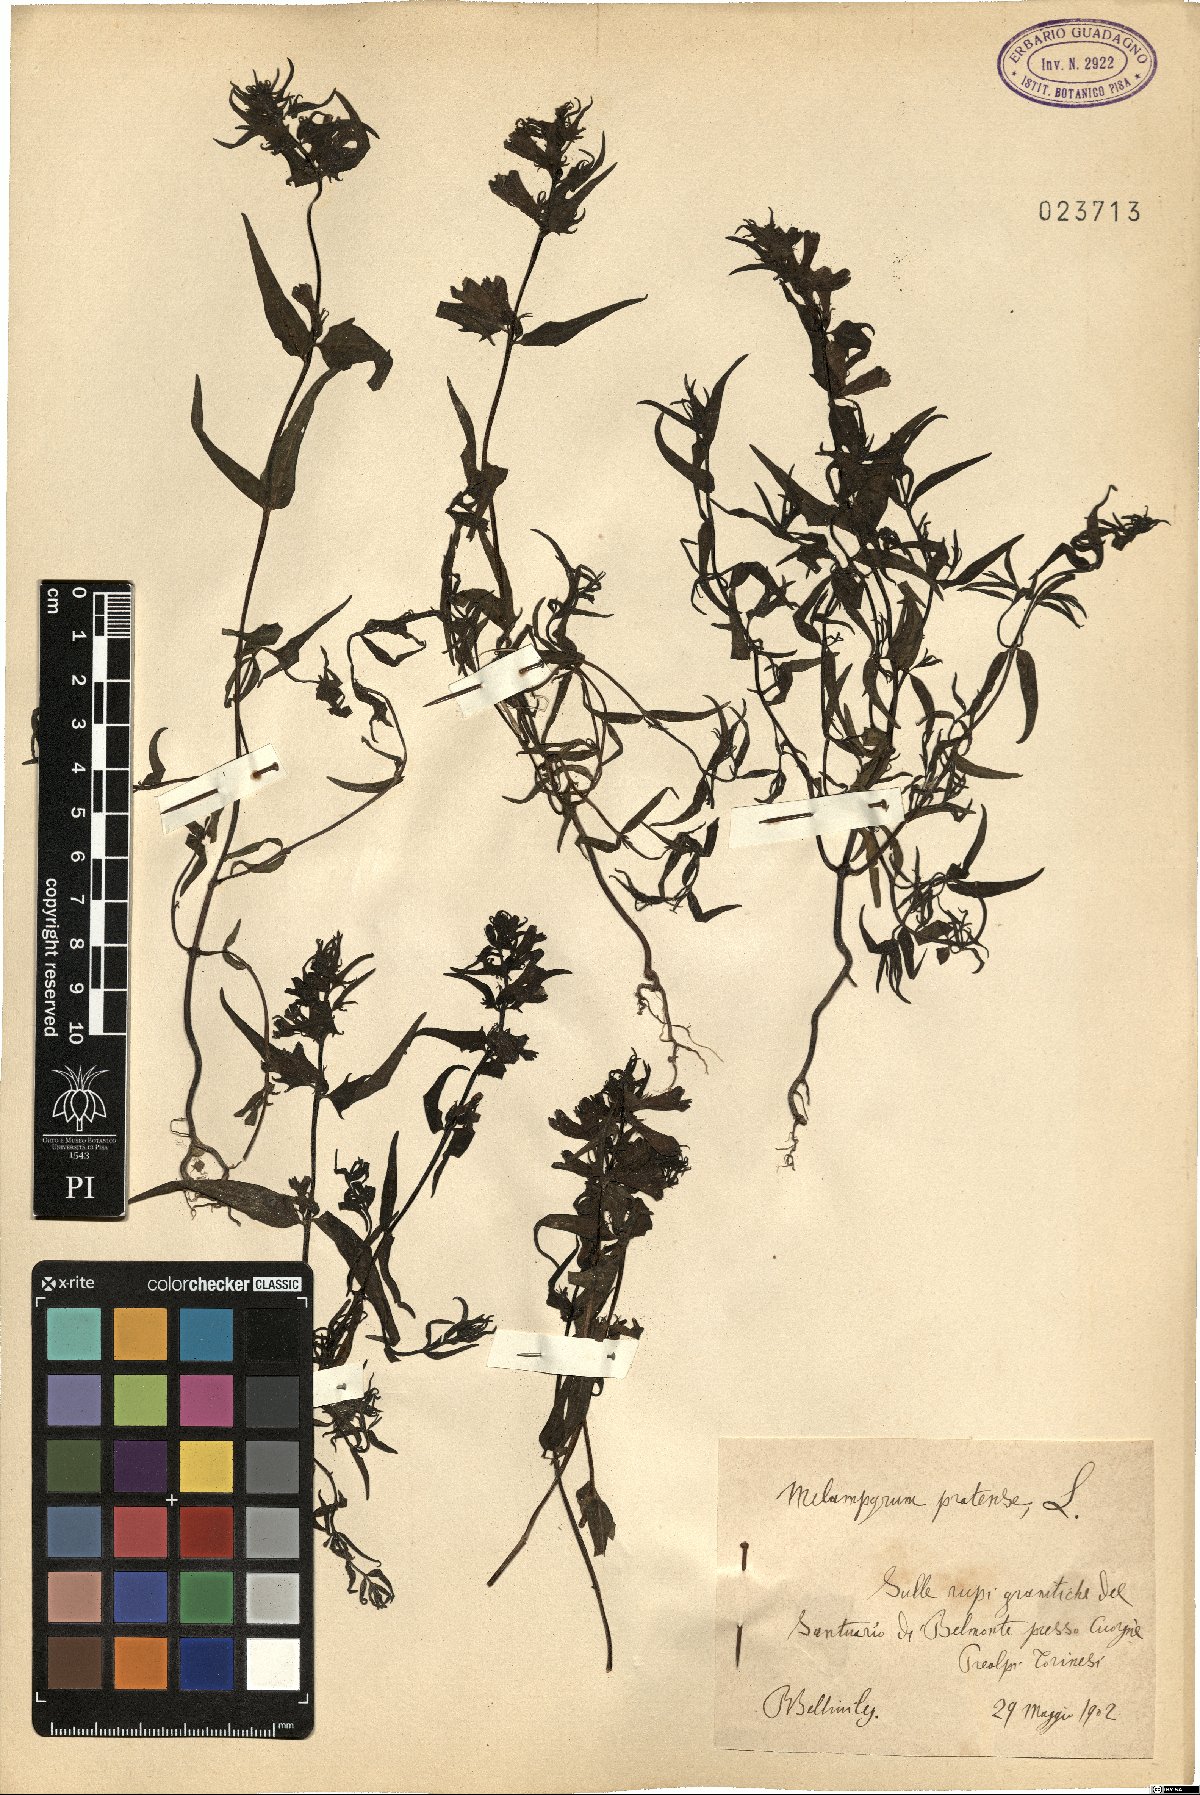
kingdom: Plantae
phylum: Tracheophyta
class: Magnoliopsida
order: Lamiales
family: Orobanchaceae
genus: Melampyrum
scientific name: Melampyrum pratense
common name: Common cow-wheat
